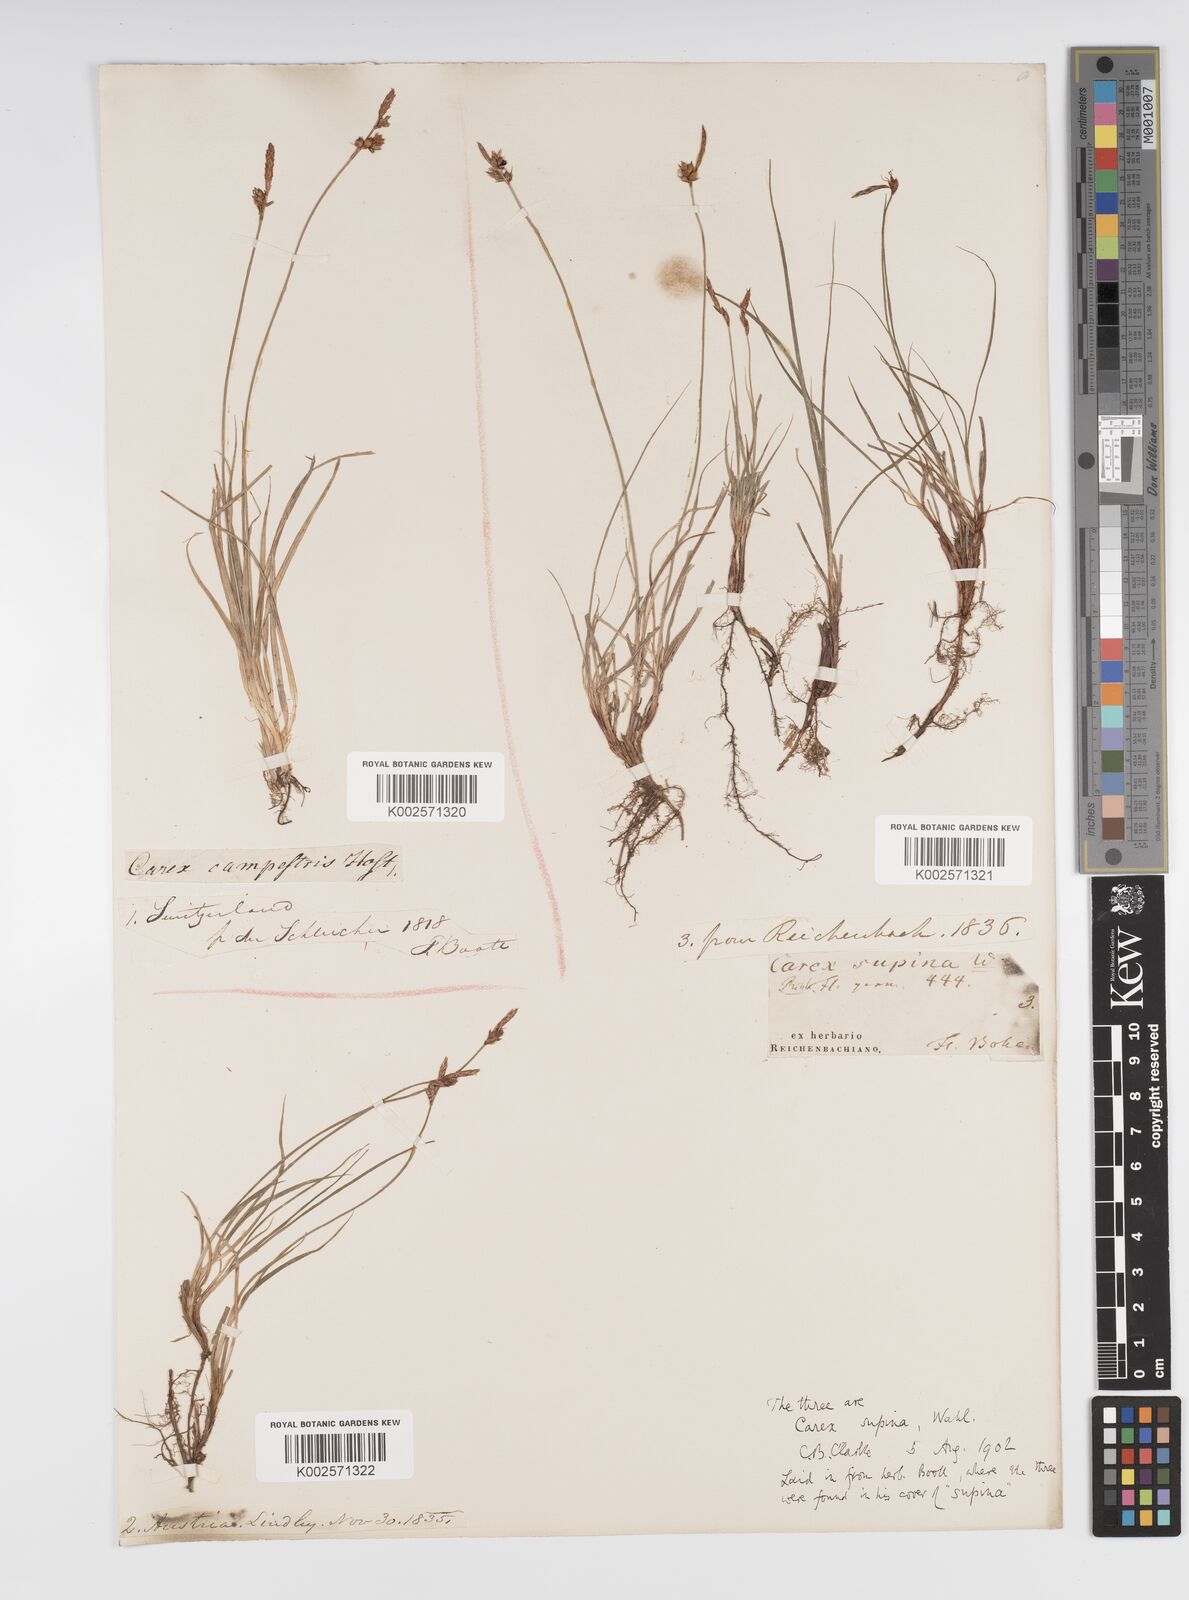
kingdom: Plantae
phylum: Tracheophyta
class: Liliopsida
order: Poales
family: Cyperaceae
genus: Carex
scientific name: Carex supina
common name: Lying-back sedge
